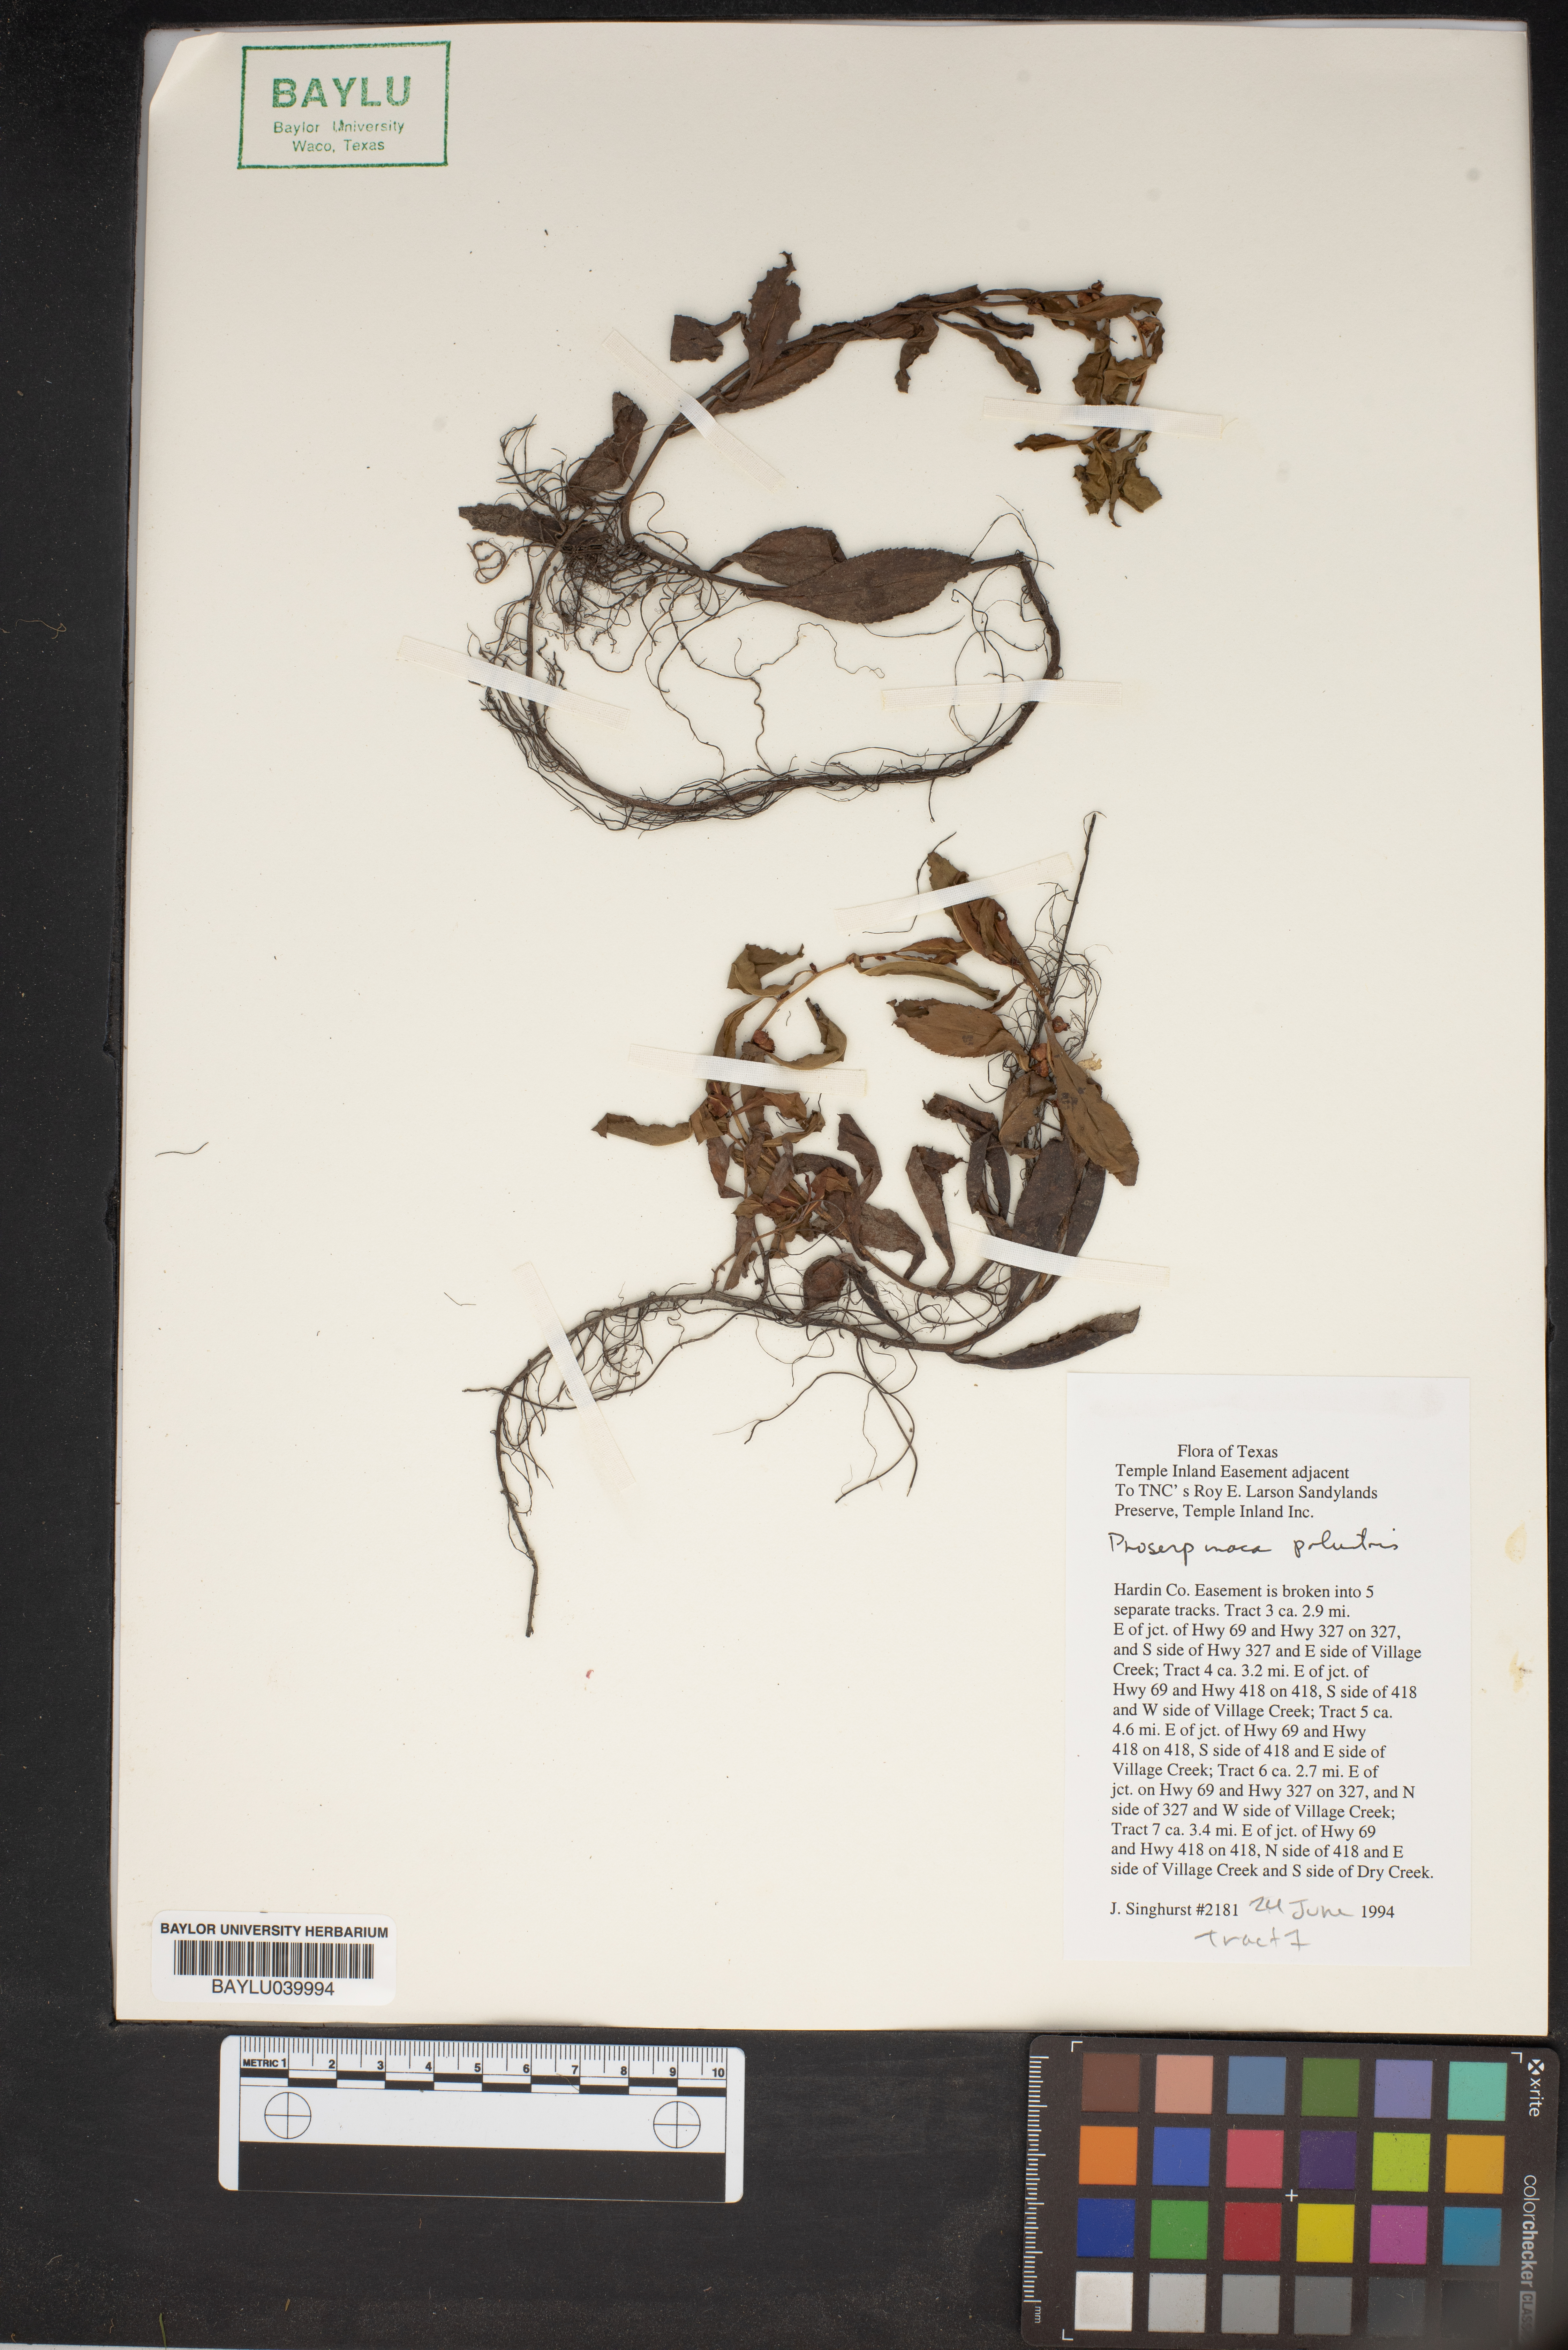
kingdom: Plantae
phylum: Tracheophyta
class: Magnoliopsida
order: Saxifragales
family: Haloragaceae
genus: Proserpinaca
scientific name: Proserpinaca
